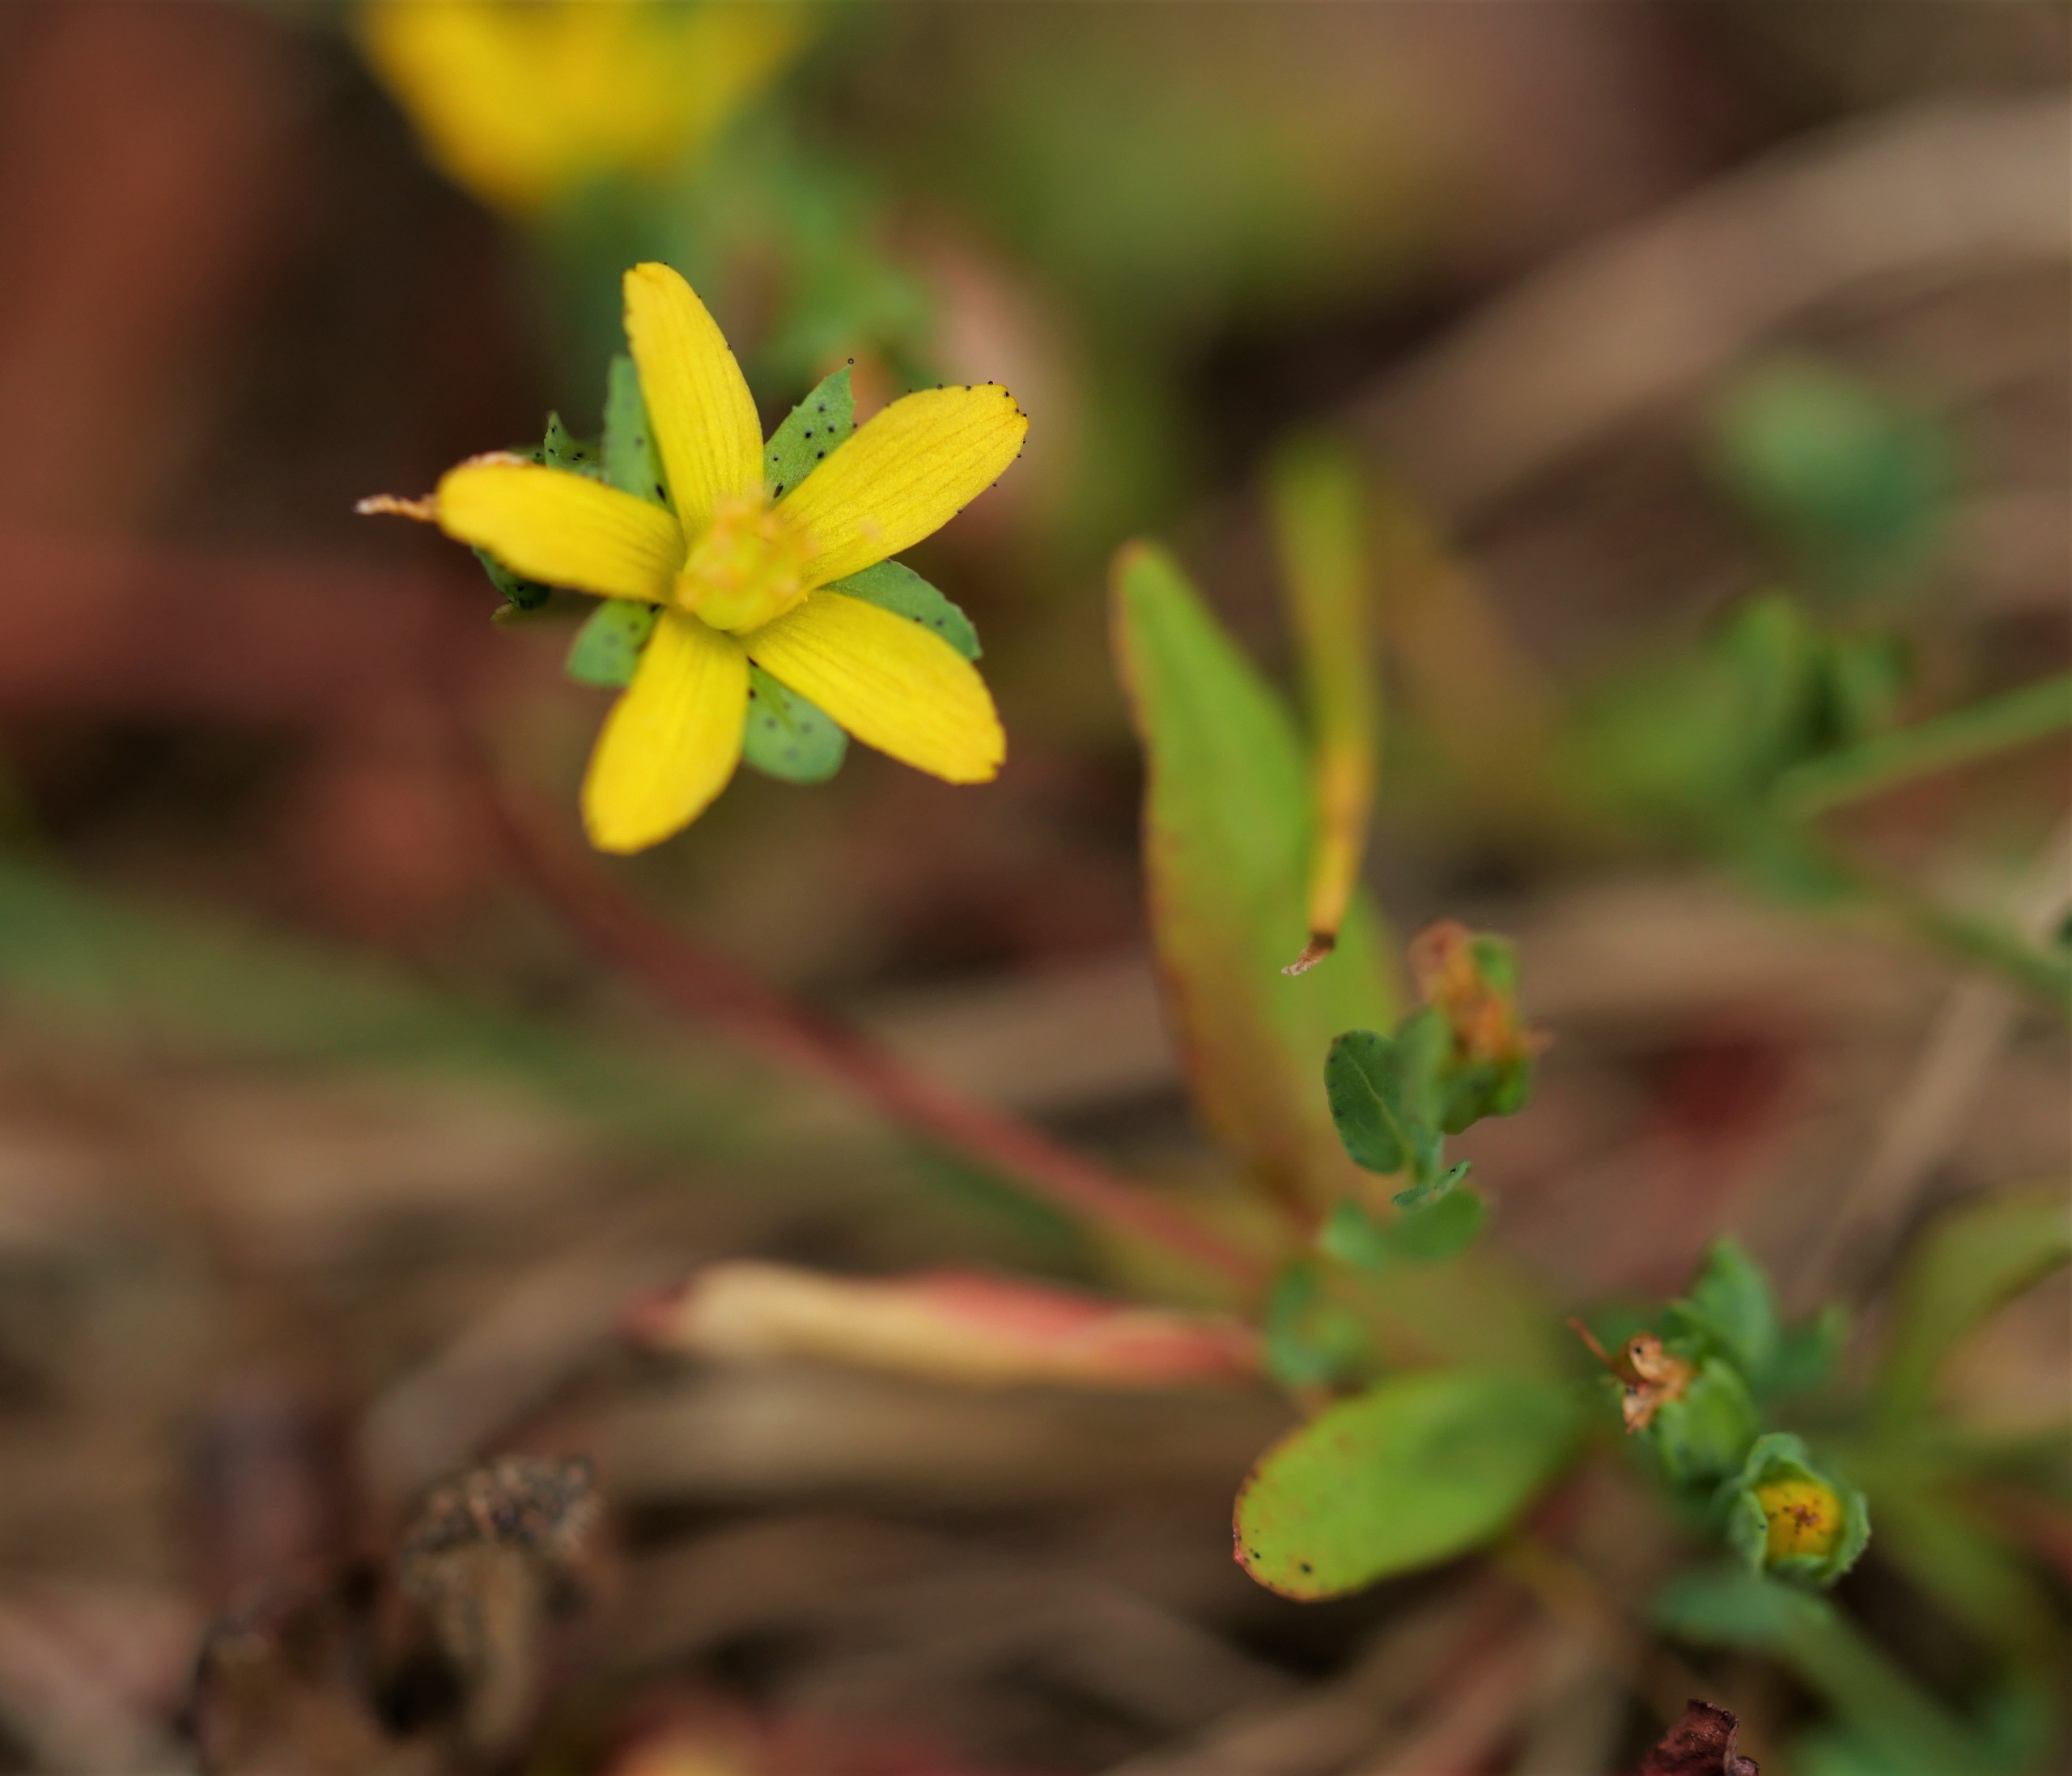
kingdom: Plantae
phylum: Tracheophyta
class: Magnoliopsida
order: Malpighiales
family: Hypericaceae
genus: Hypericum
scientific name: Hypericum humifusum
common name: Dværg-perikon
